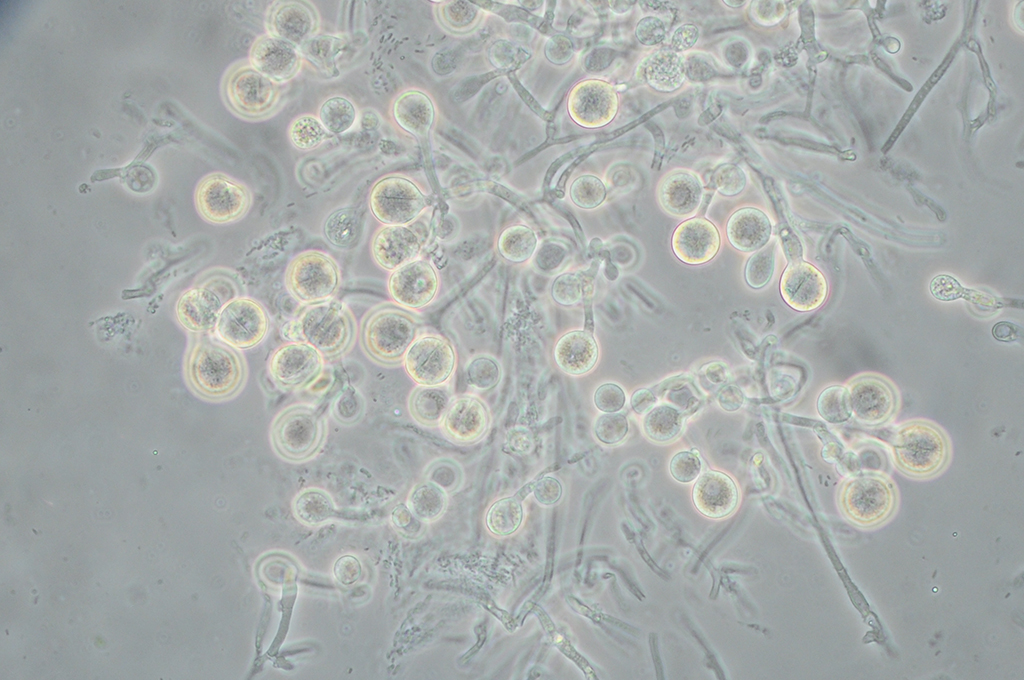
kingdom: Fungi
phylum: Basidiomycota
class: Tremellomycetes
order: Tremellales
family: Tremellaceae
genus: Tremella
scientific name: Tremella globispora
